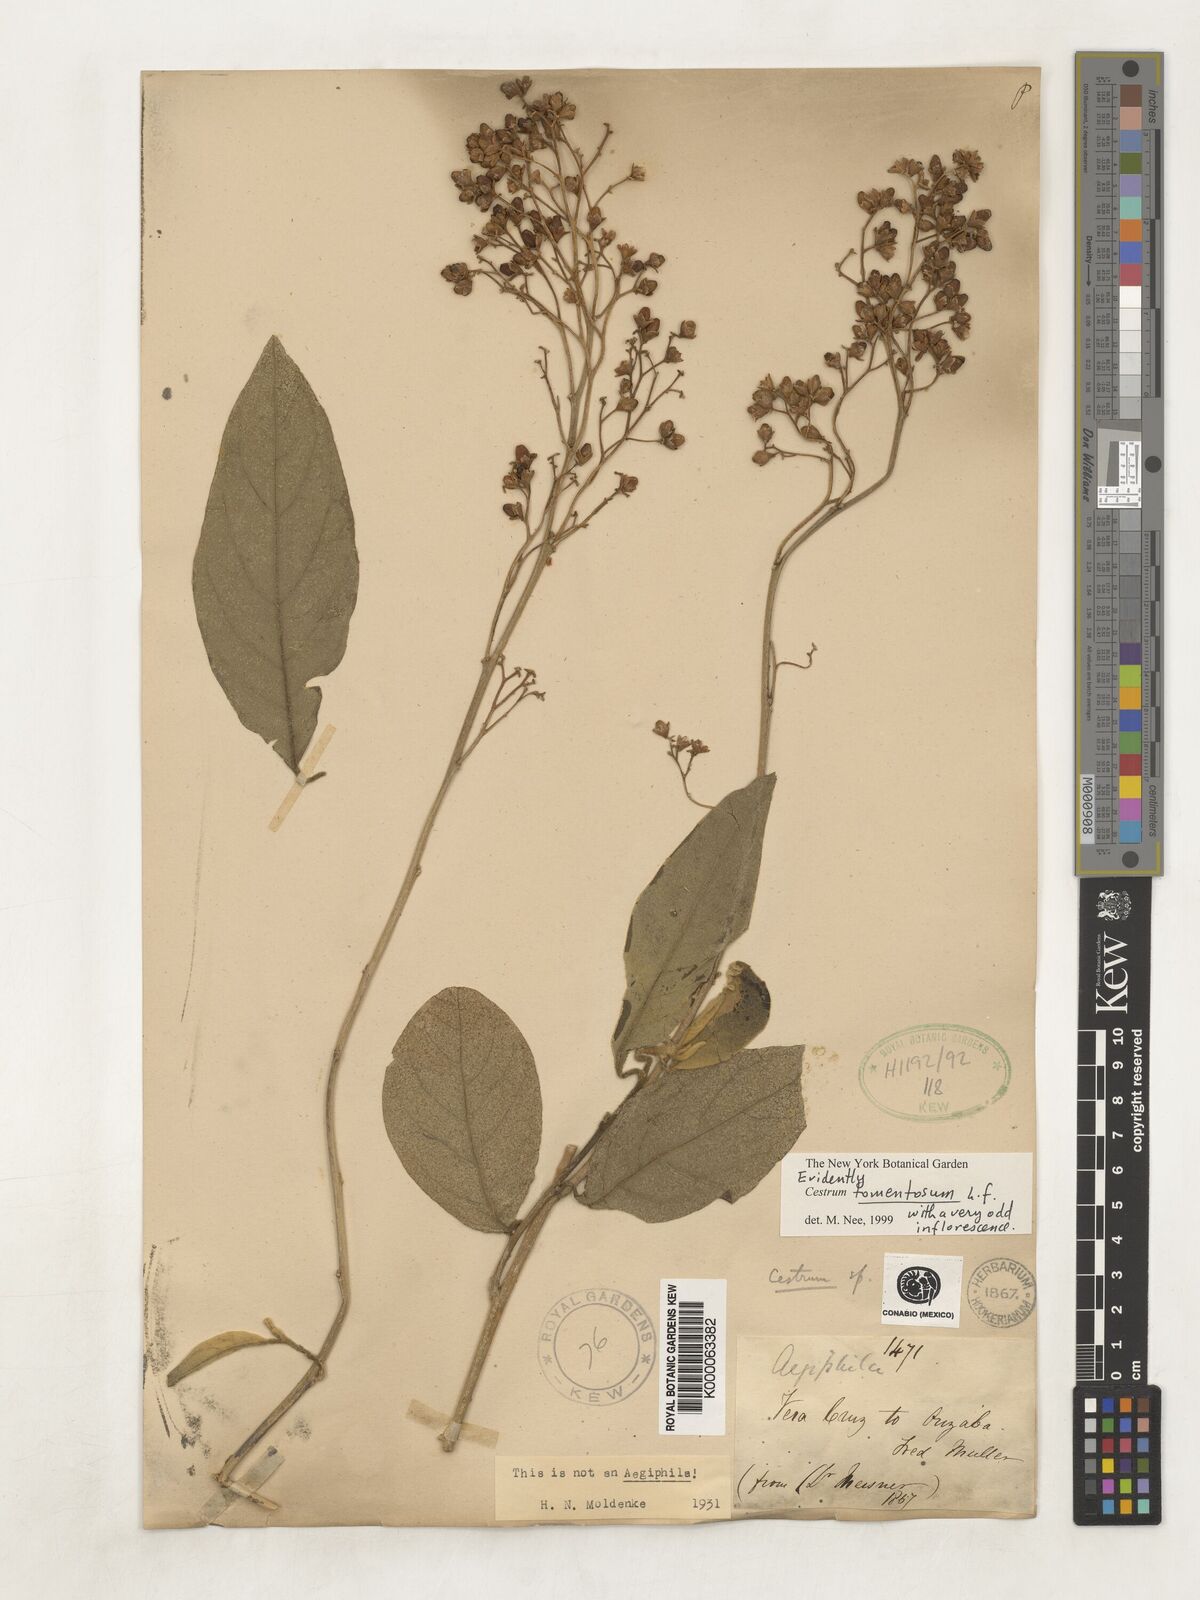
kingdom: Plantae
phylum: Tracheophyta
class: Magnoliopsida
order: Solanales
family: Solanaceae
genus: Cestrum
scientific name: Cestrum tomentosum
